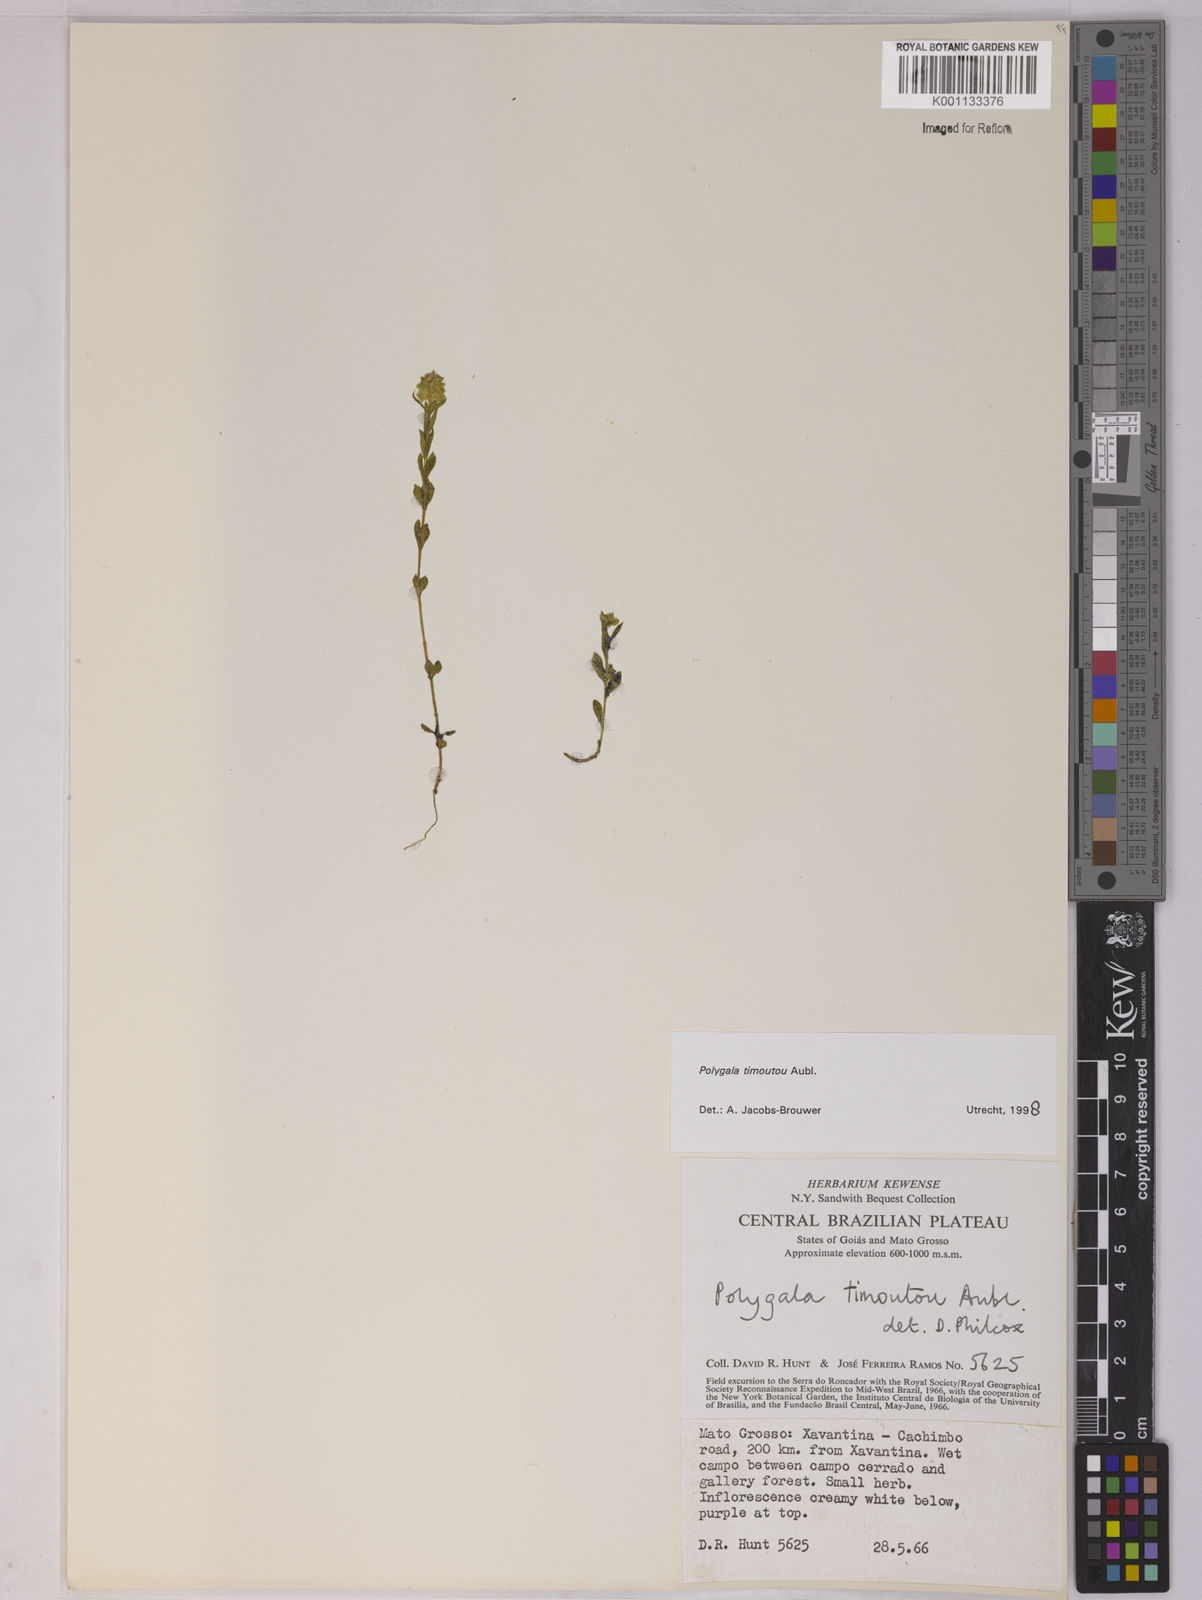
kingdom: Plantae
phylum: Tracheophyta
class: Magnoliopsida
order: Fabales
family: Polygalaceae
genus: Polygala
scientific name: Polygala timoutoides
